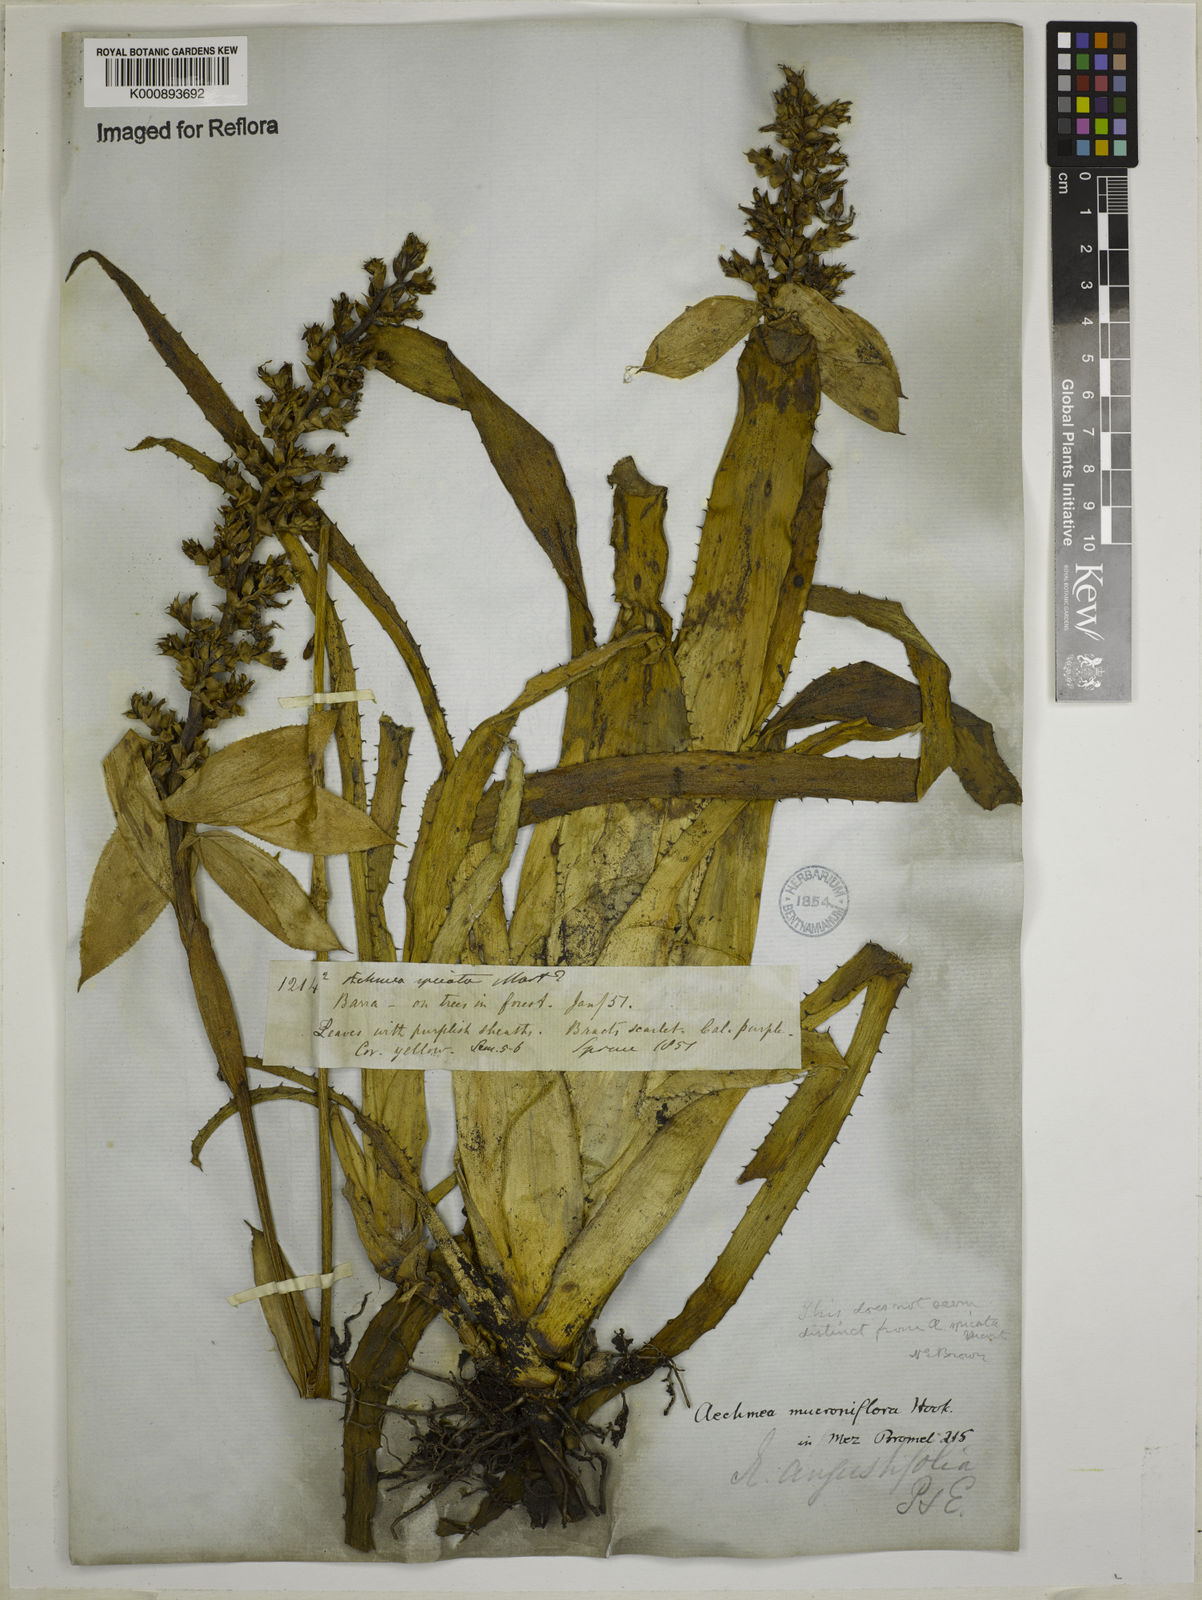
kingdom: Plantae
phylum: Tracheophyta
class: Liliopsida
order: Poales
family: Bromeliaceae
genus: Aechmea
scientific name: Aechmea mertensii
